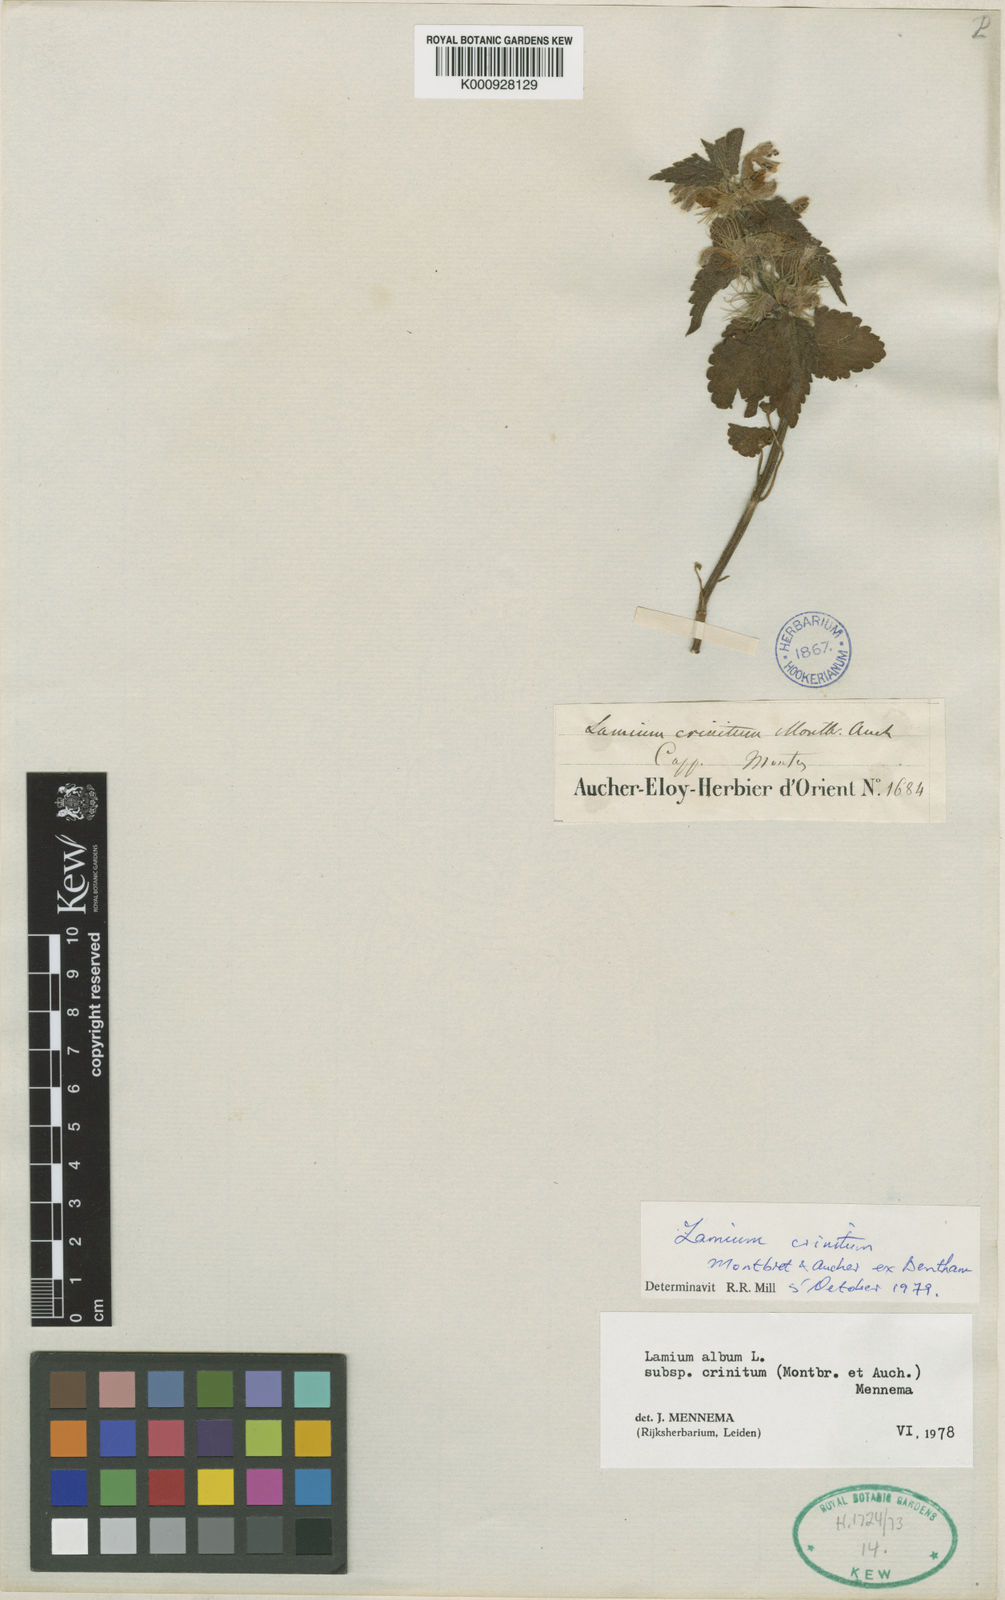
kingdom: Plantae
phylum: Tracheophyta
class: Magnoliopsida
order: Lamiales
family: Lamiaceae
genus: Lamium
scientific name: Lamium album
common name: White dead-nettle
